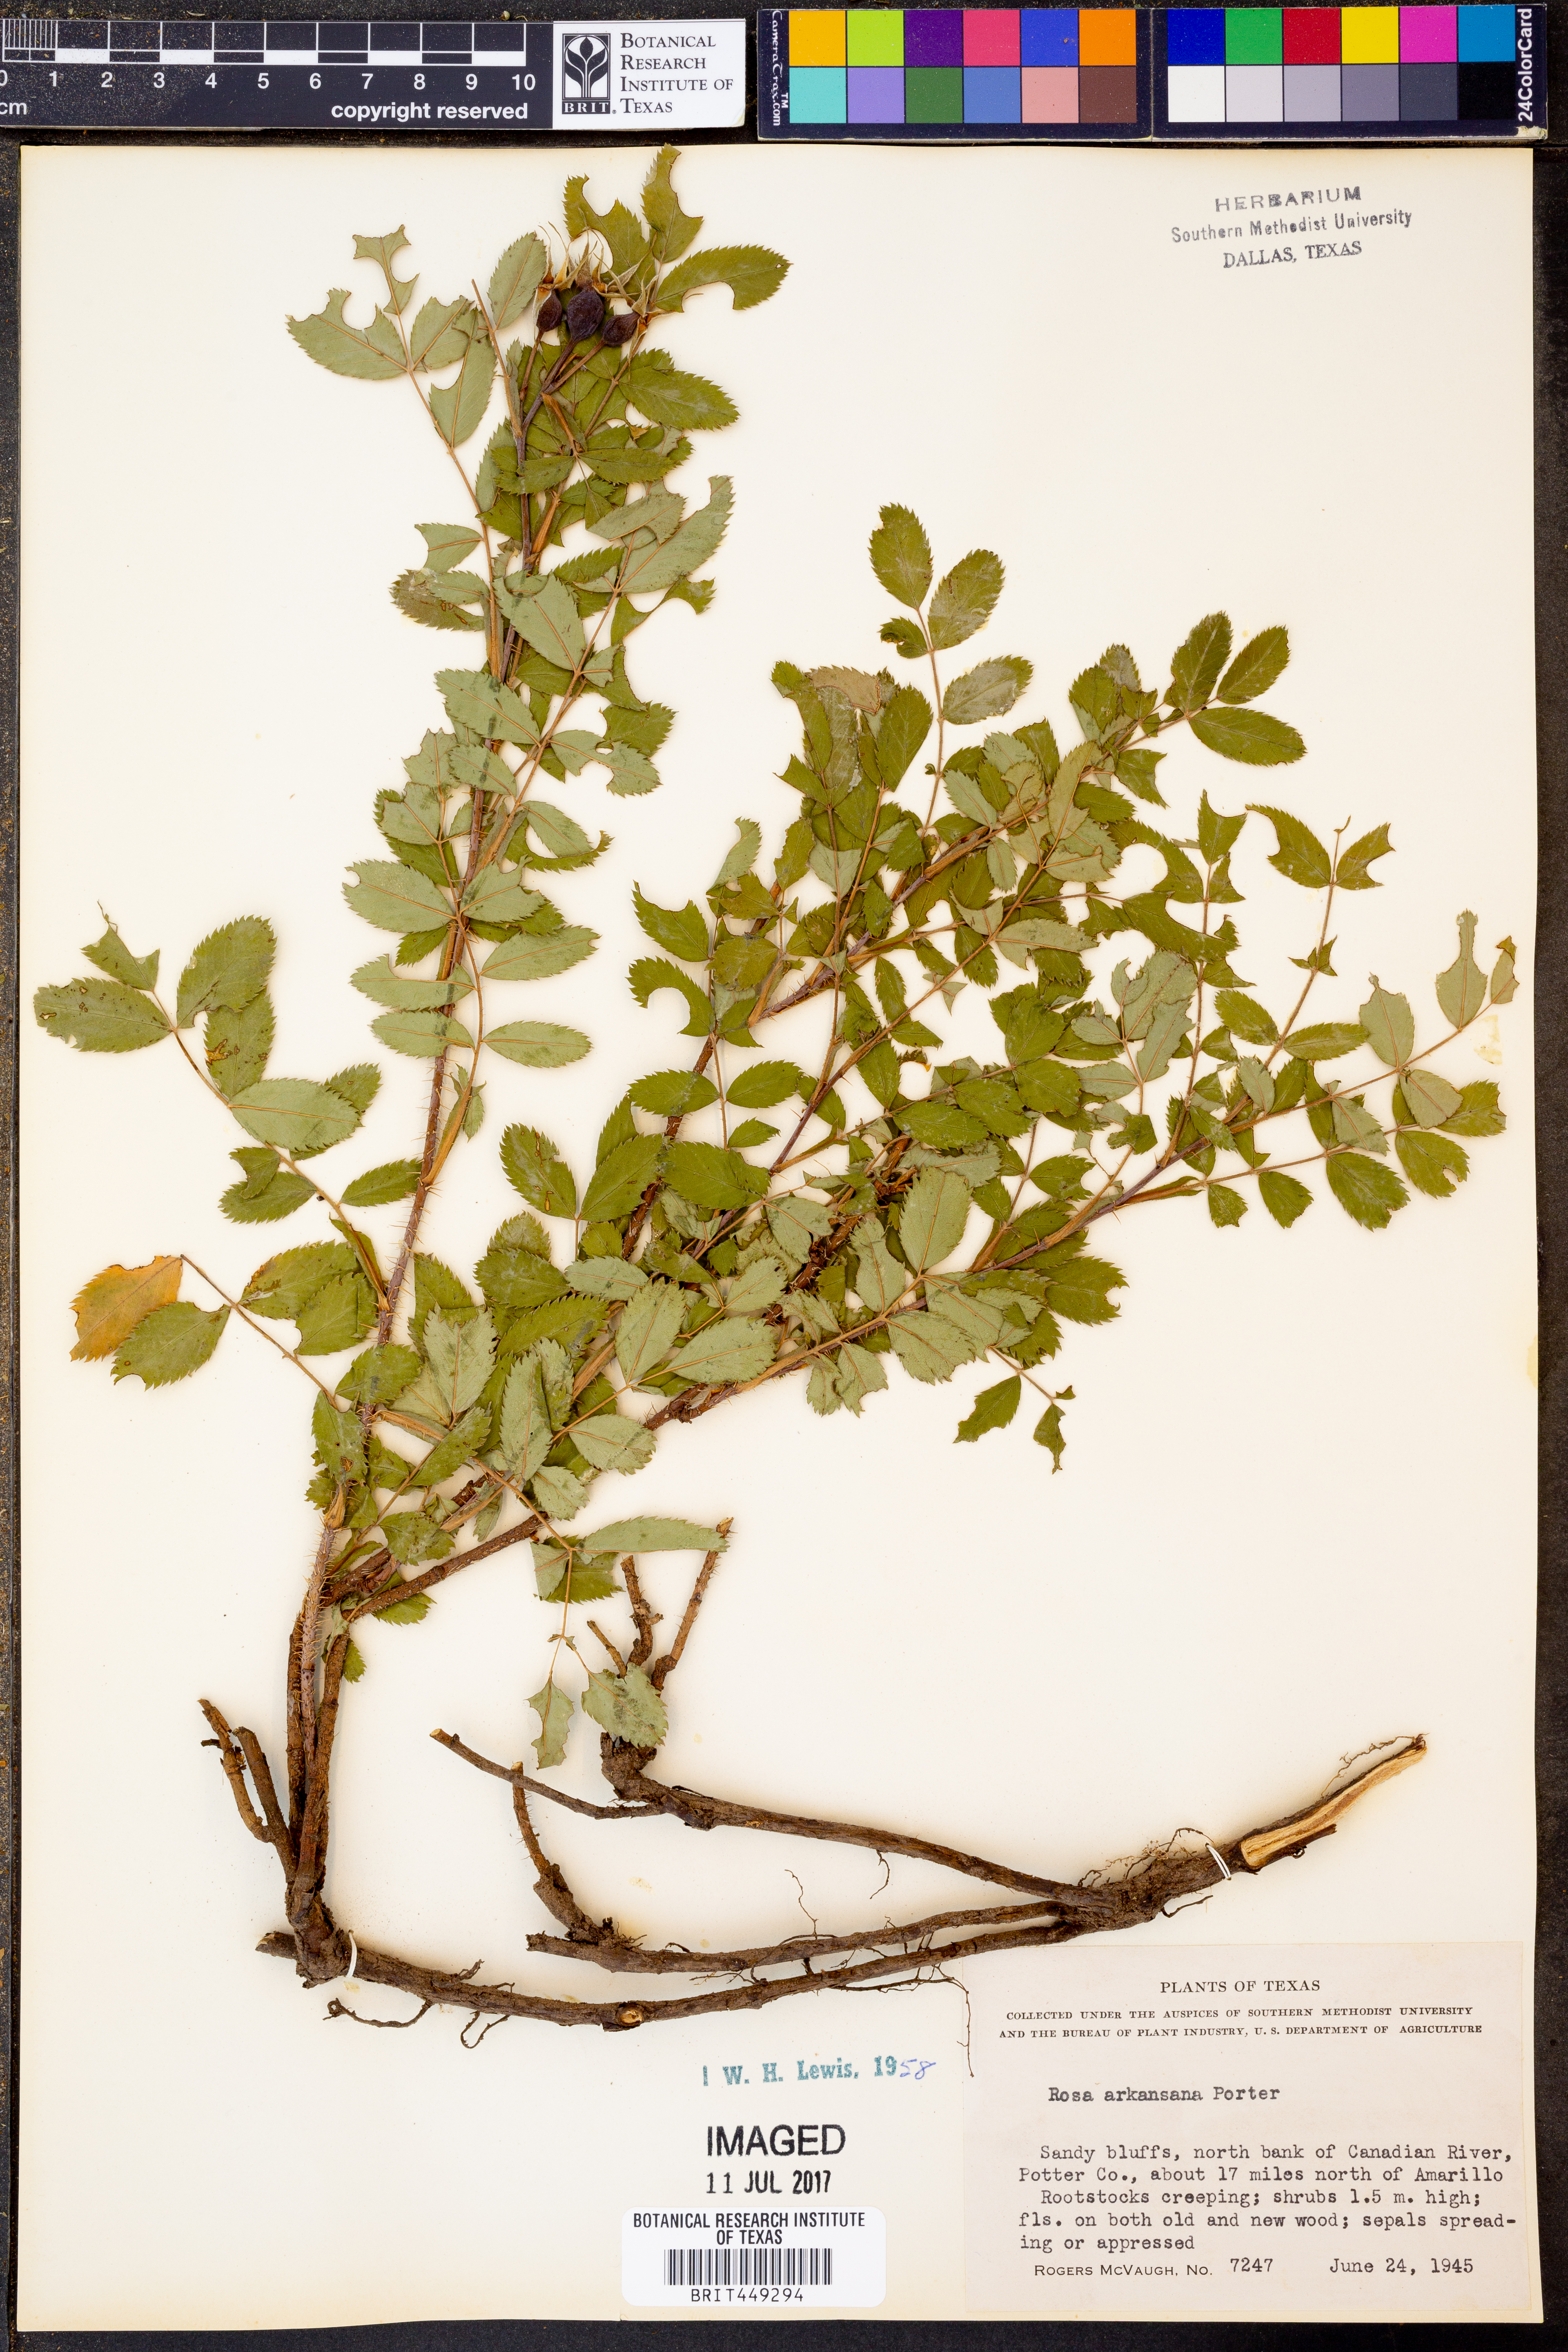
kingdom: Plantae
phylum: Tracheophyta
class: Magnoliopsida
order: Rosales
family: Rosaceae
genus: Rosa
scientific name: Rosa arkansana
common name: Prairie rose
